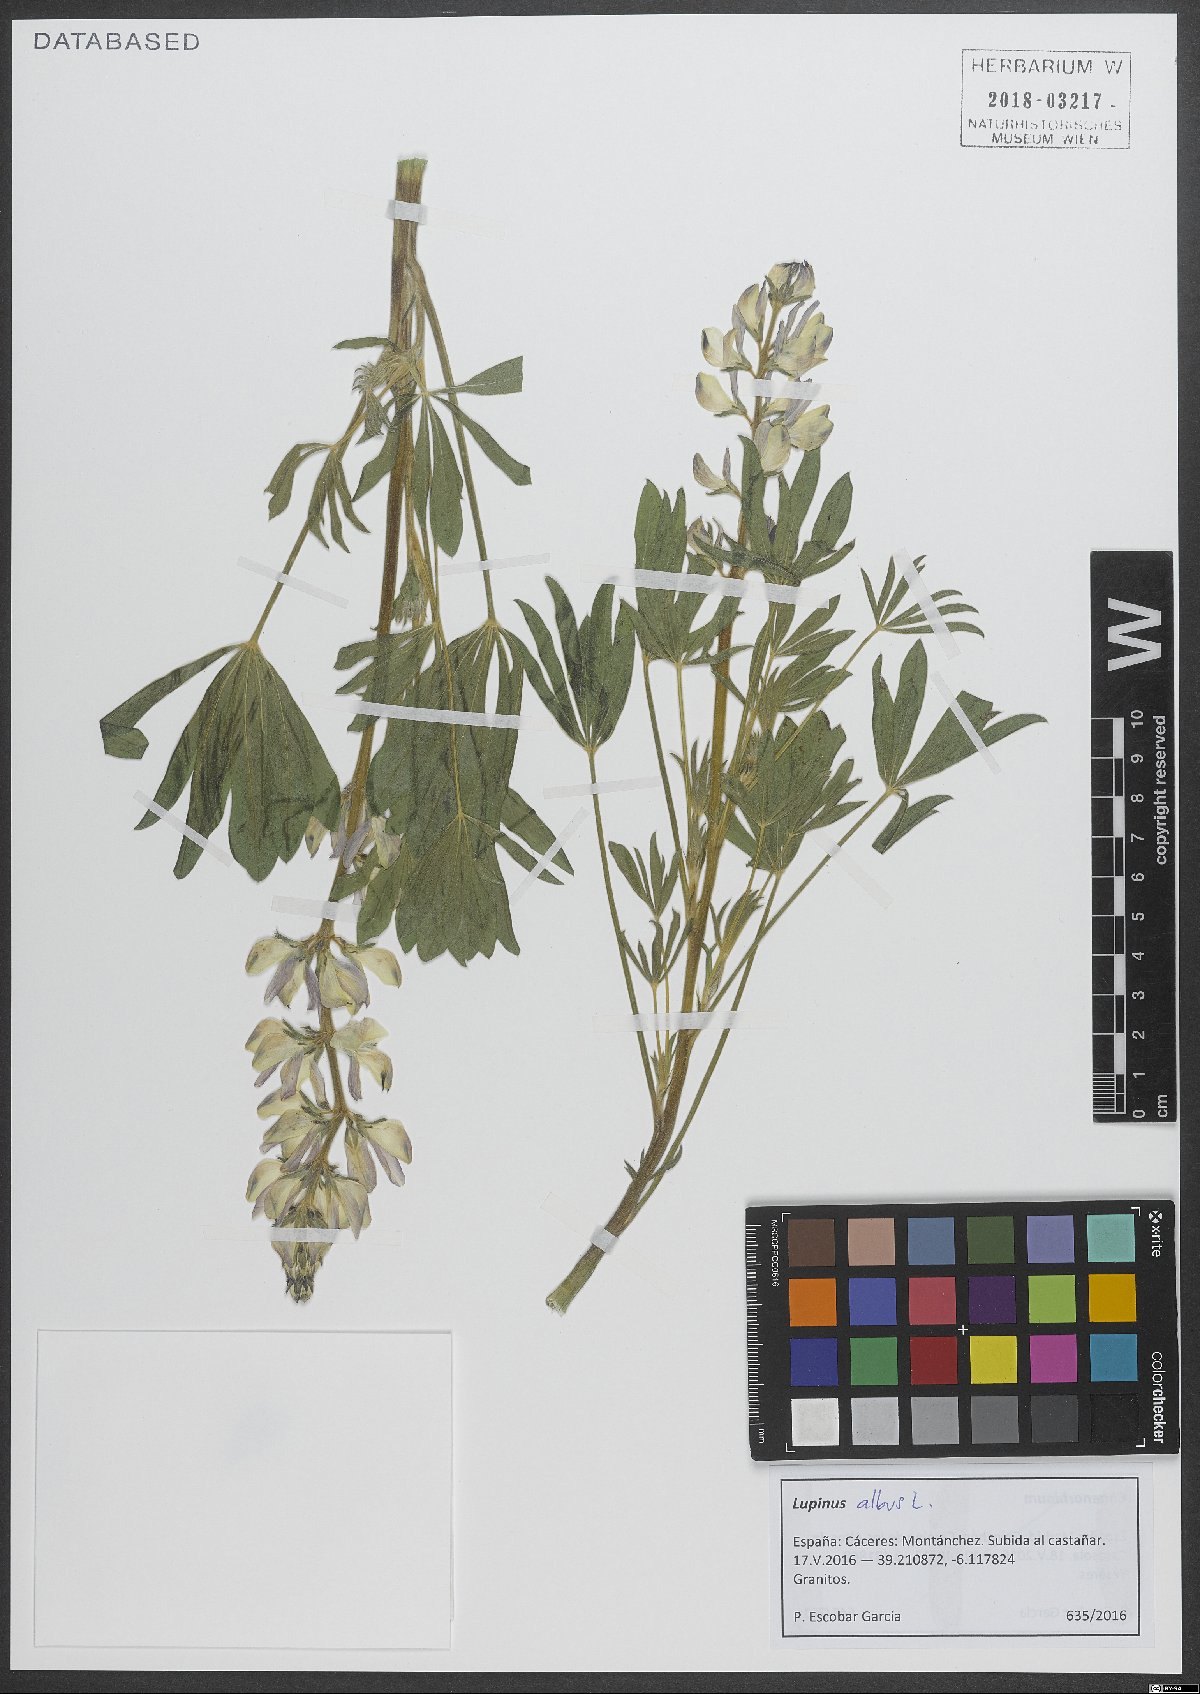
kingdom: Plantae
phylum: Tracheophyta
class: Magnoliopsida
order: Fabales
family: Fabaceae
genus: Lupinus
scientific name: Lupinus gredensis
